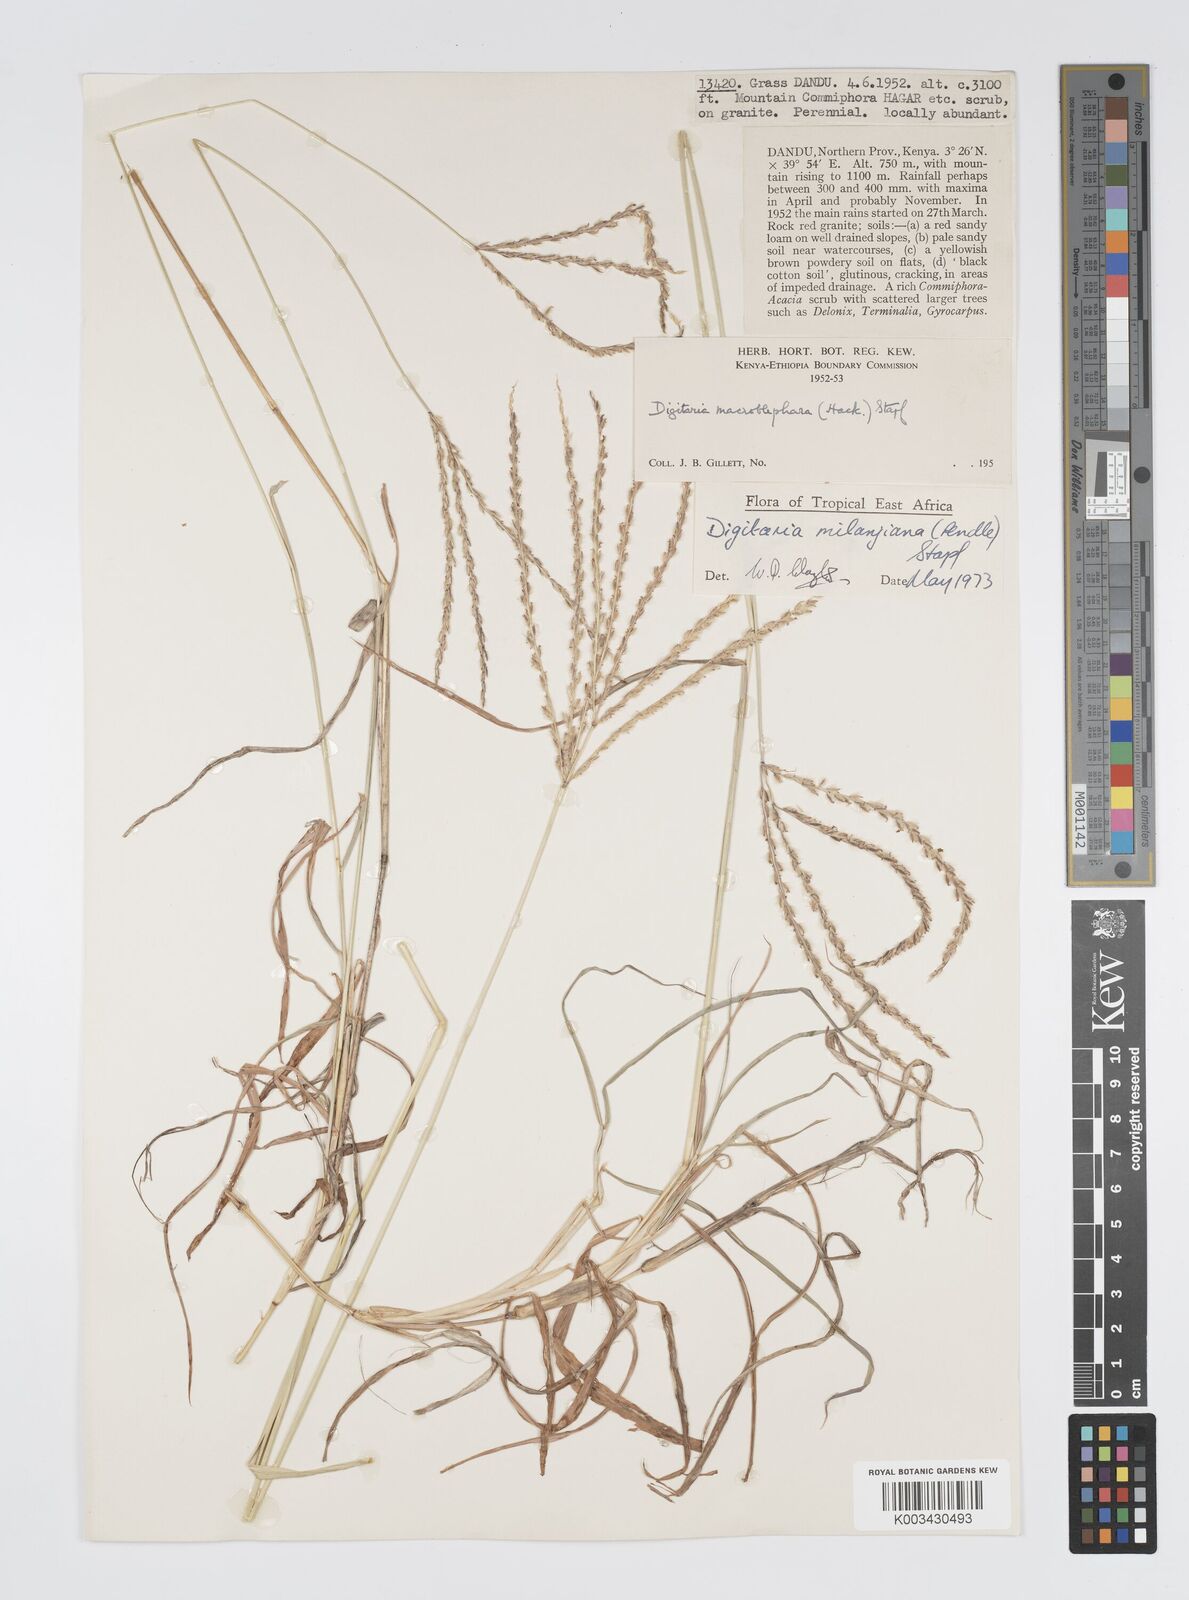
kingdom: Plantae
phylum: Tracheophyta
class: Liliopsida
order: Poales
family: Poaceae
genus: Digitaria
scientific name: Digitaria milanjiana
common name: Madagascar crabgrass
